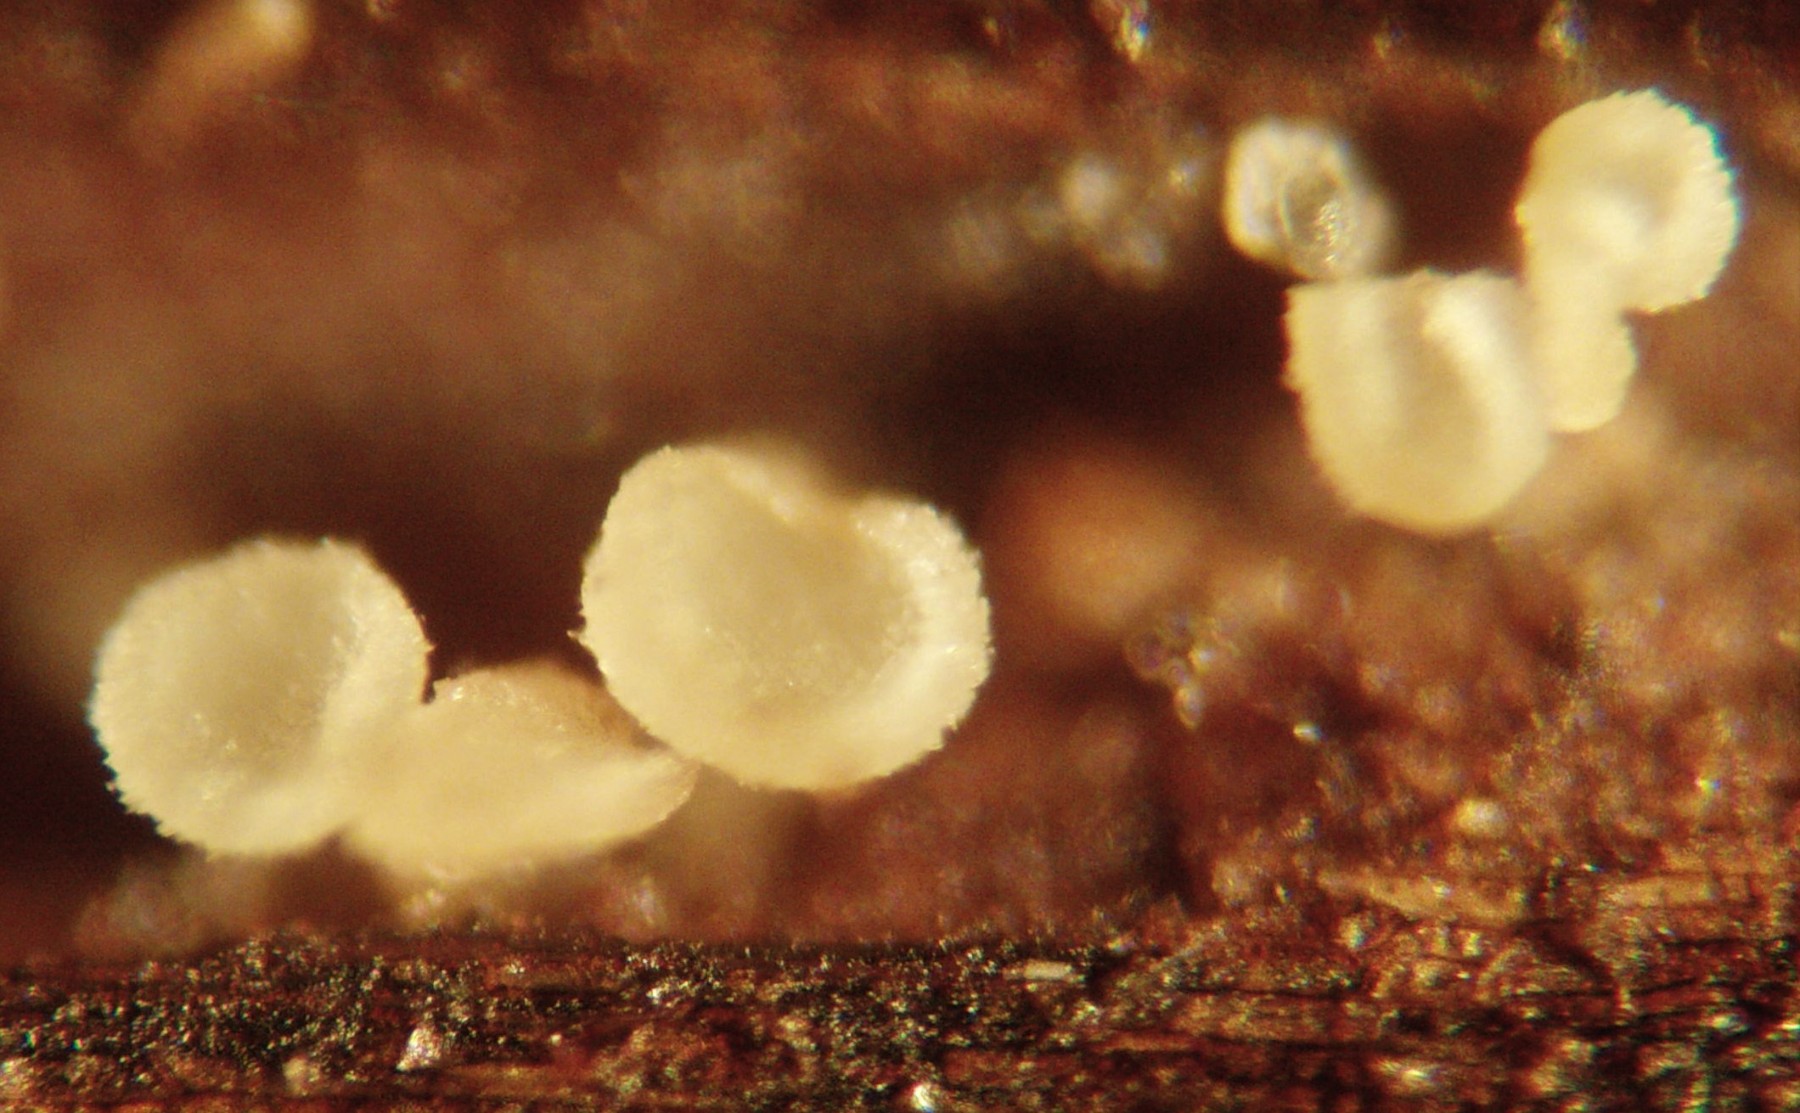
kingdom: Fungi
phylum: Ascomycota
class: Leotiomycetes
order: Helotiales
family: Pezizellaceae
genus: Psilachnum
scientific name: Psilachnum chrysostigmum
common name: gulnende hårskive
